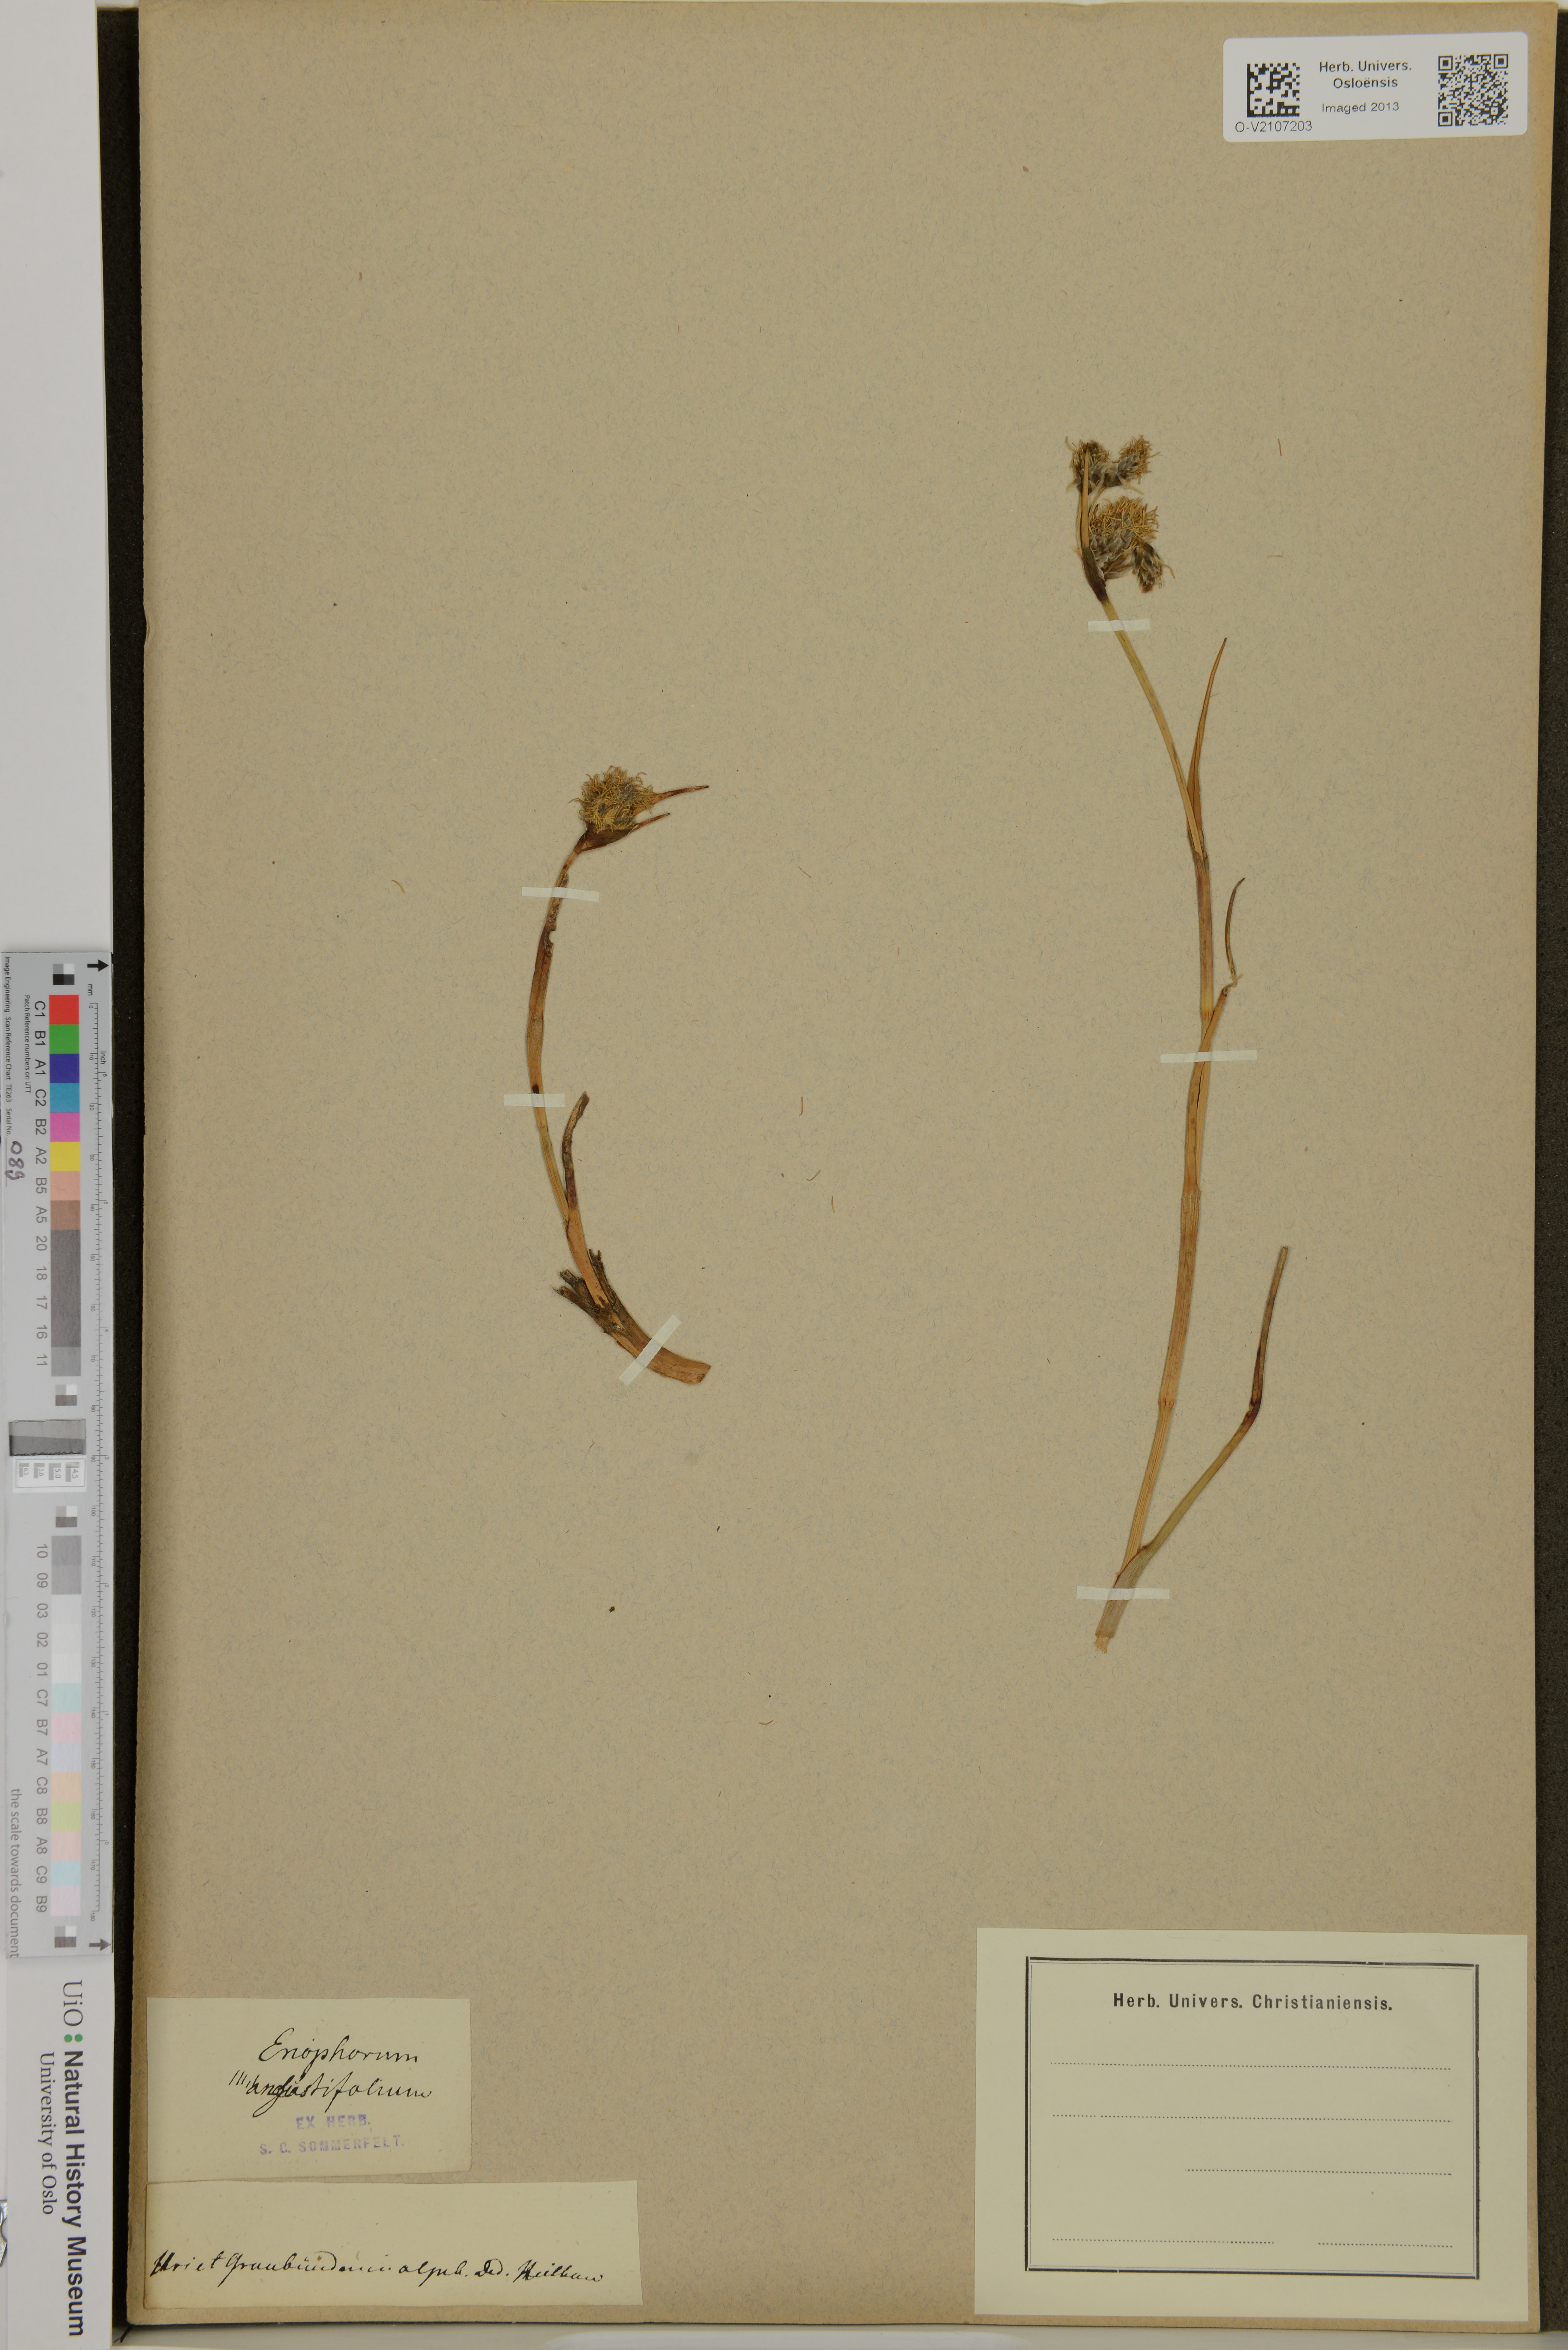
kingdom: Plantae
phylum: Tracheophyta
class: Liliopsida
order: Poales
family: Cyperaceae
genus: Eriophorum
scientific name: Eriophorum angustifolium
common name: Common cottongrass
